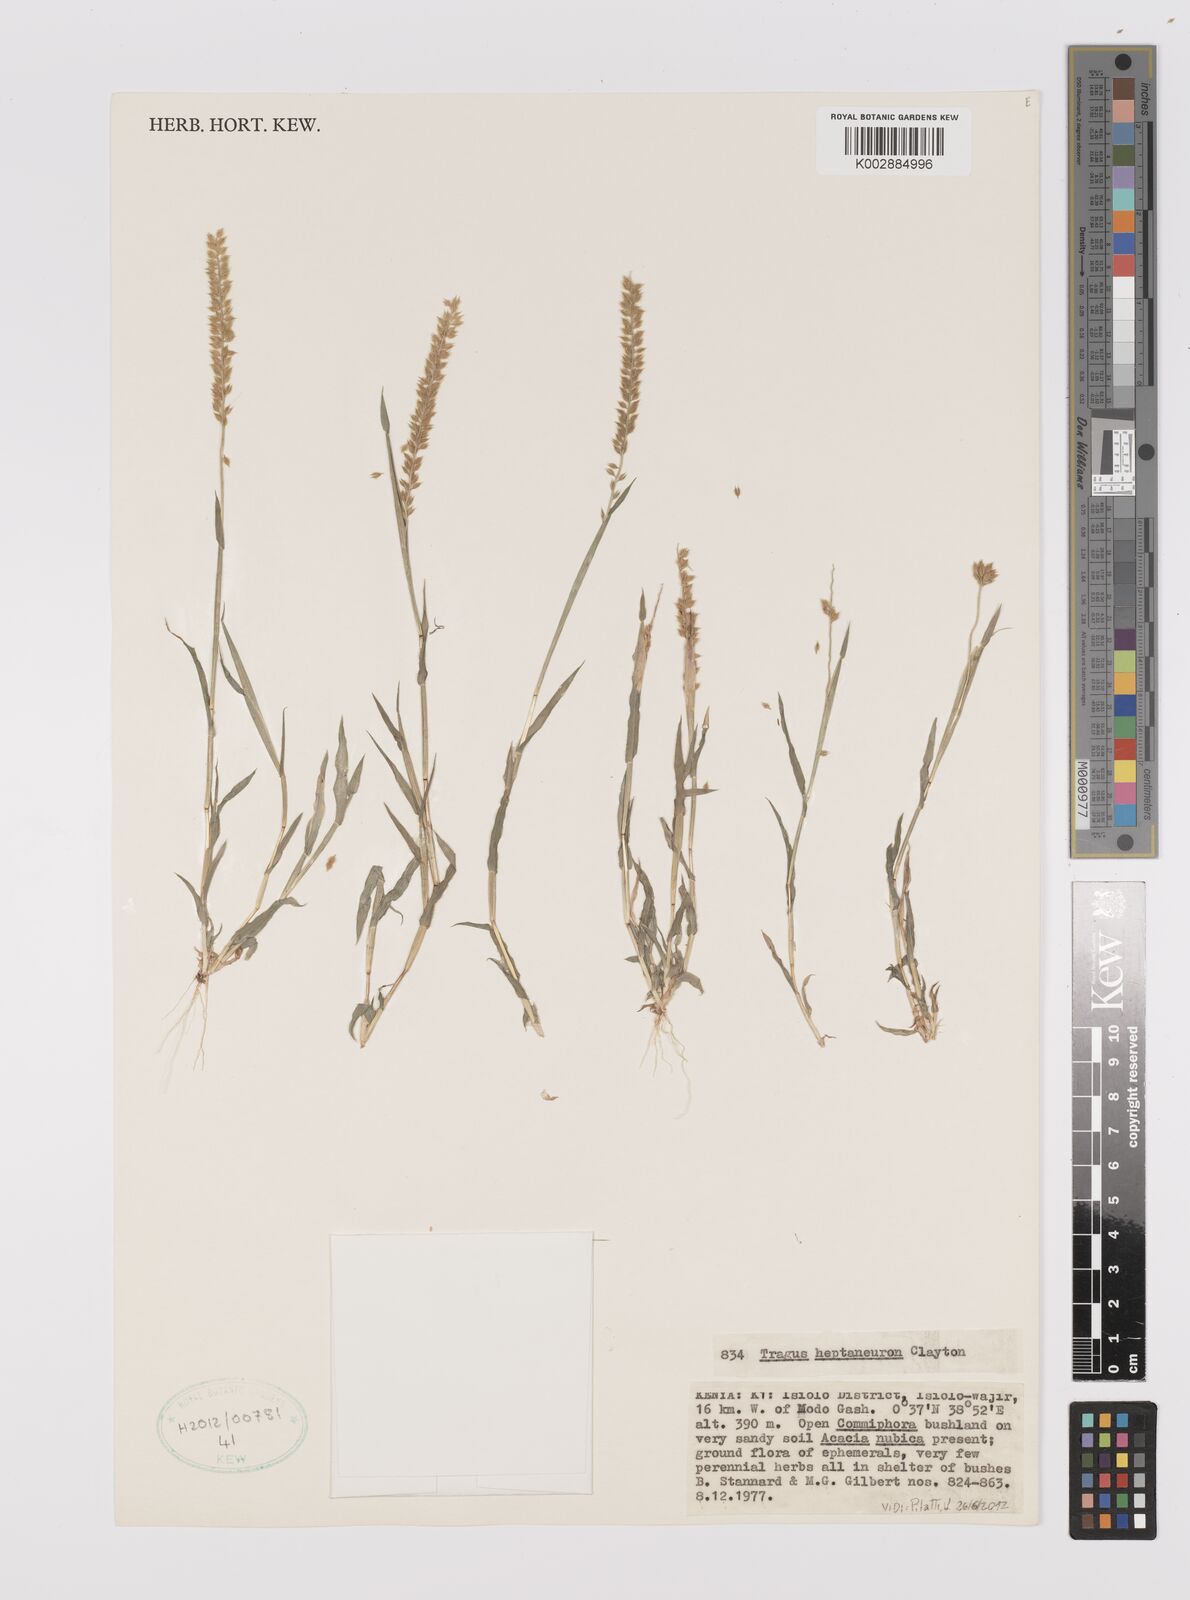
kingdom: Plantae
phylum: Tracheophyta
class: Liliopsida
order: Poales
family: Poaceae
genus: Tragus
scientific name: Tragus heptaneuron
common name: Kenya bur grass
